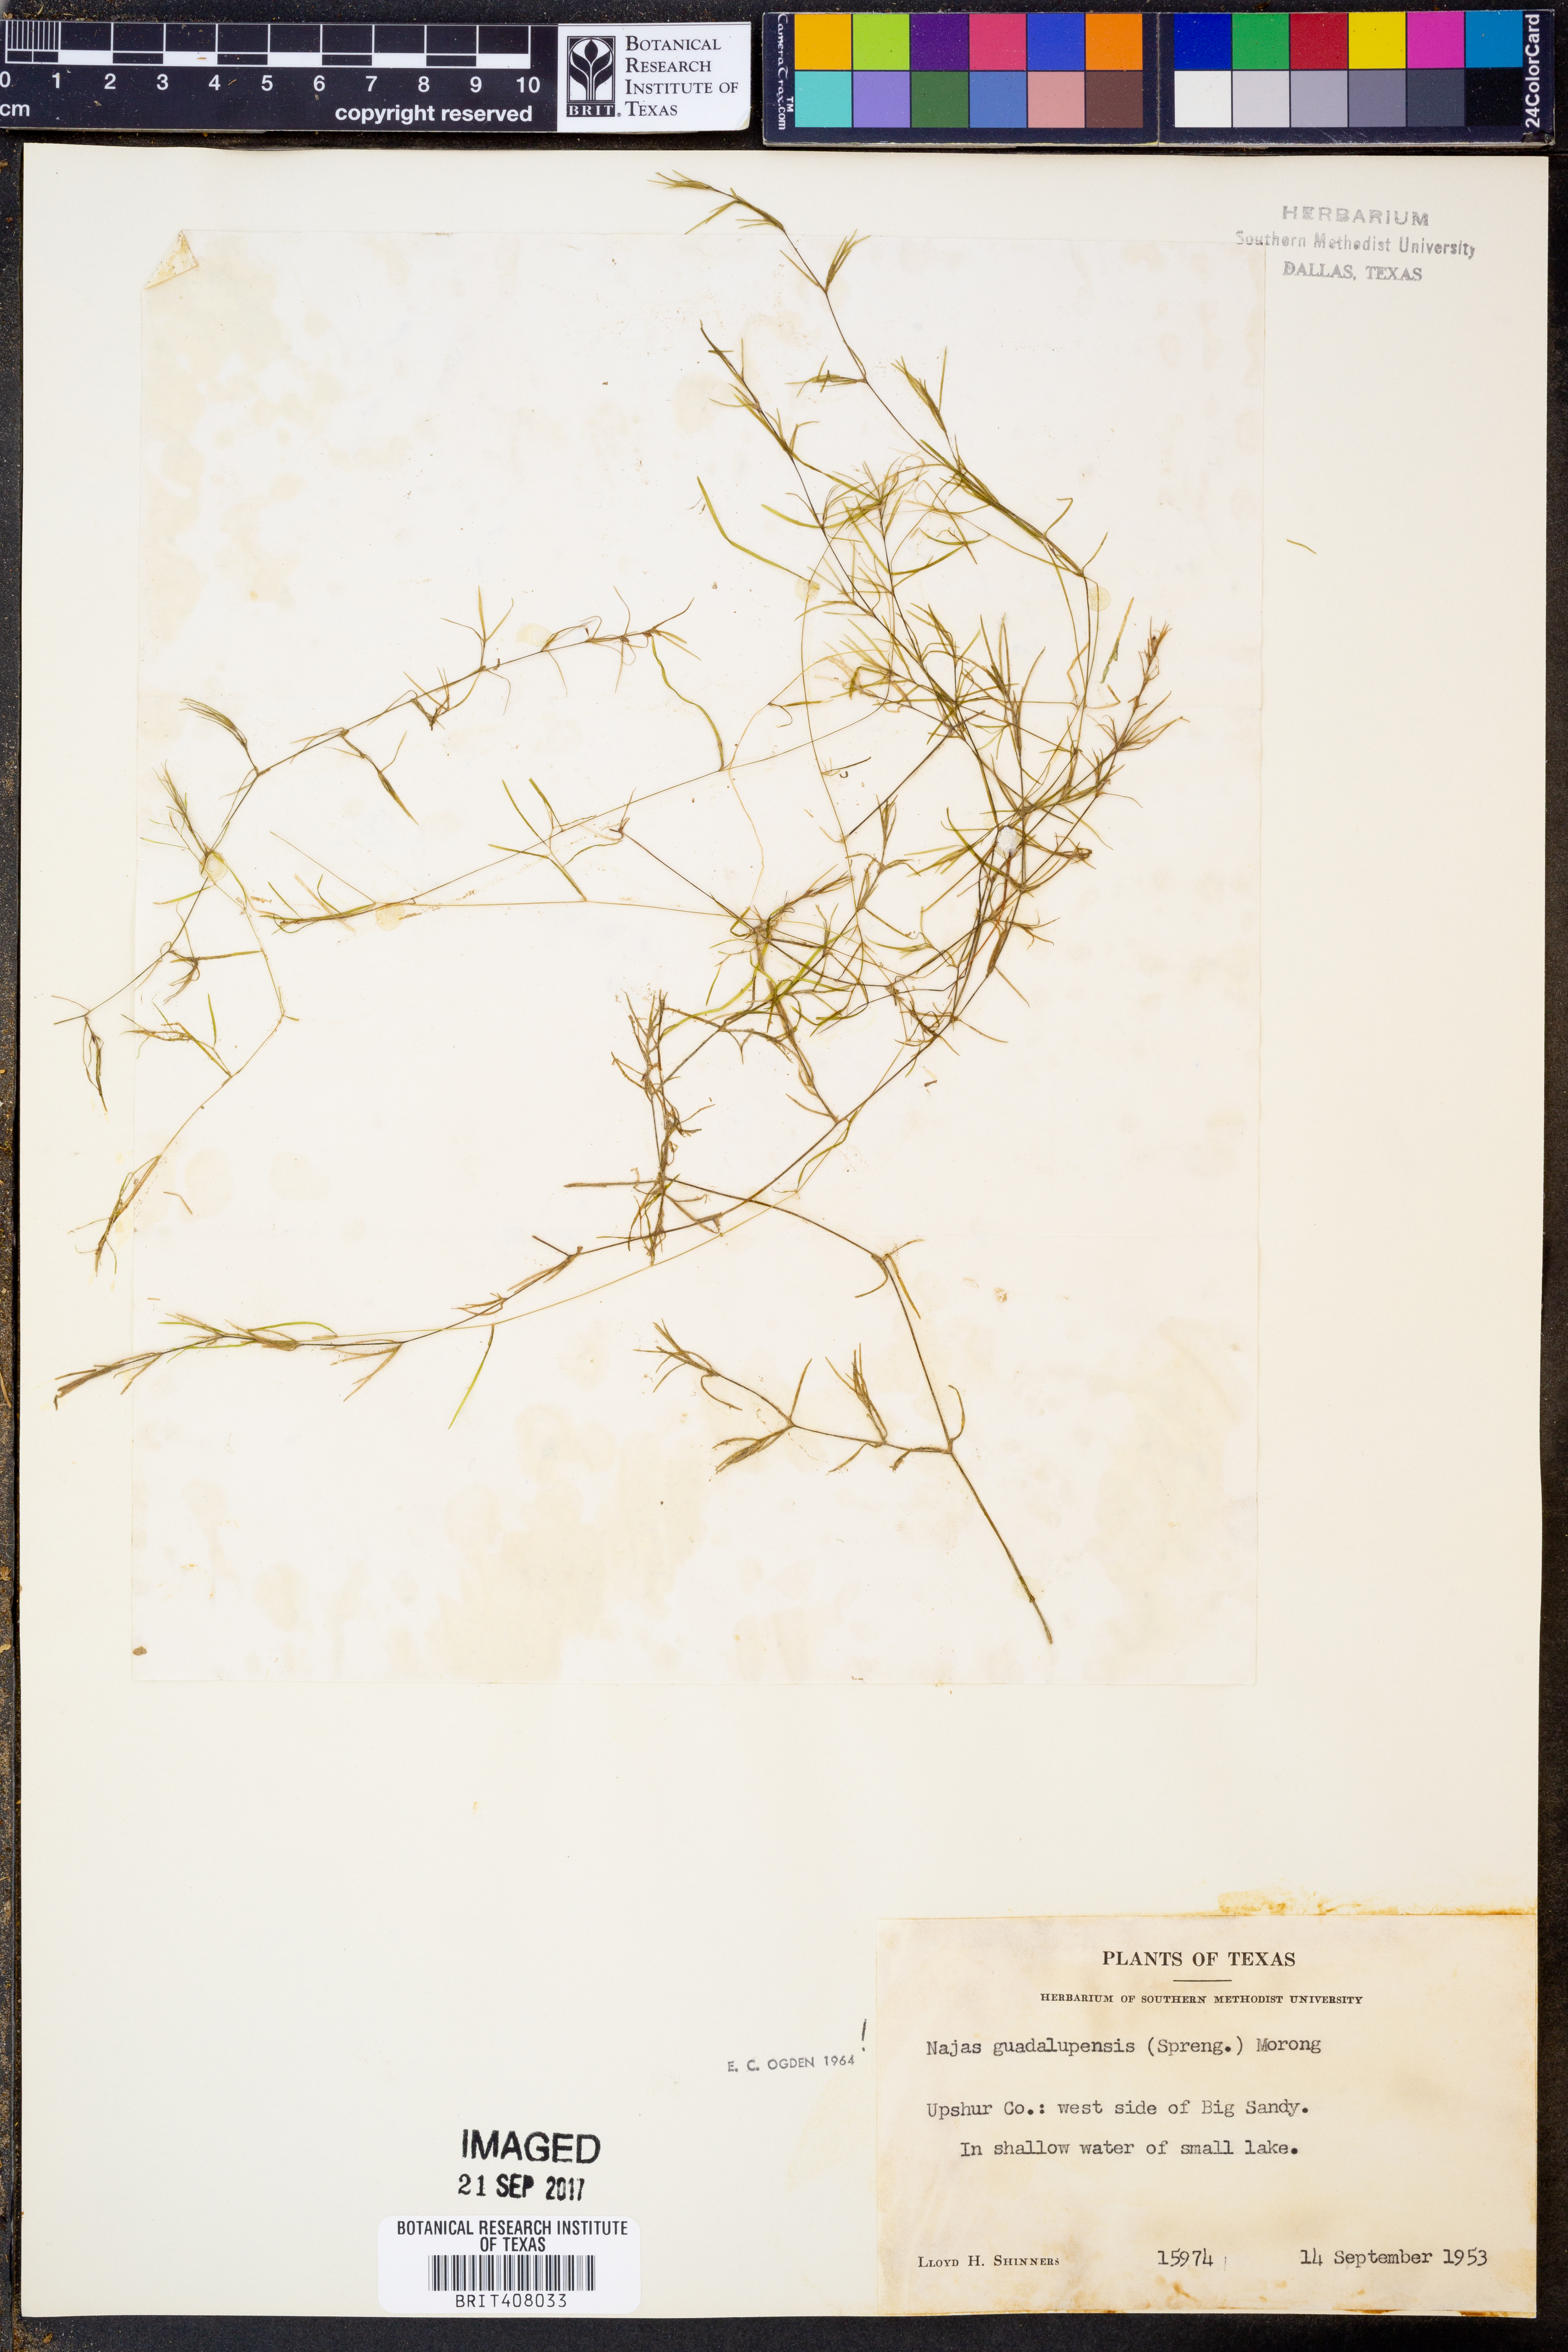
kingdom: Plantae
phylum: Tracheophyta
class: Liliopsida
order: Alismatales
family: Hydrocharitaceae
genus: Najas
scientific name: Najas guadalupensis
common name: Southern naiad
